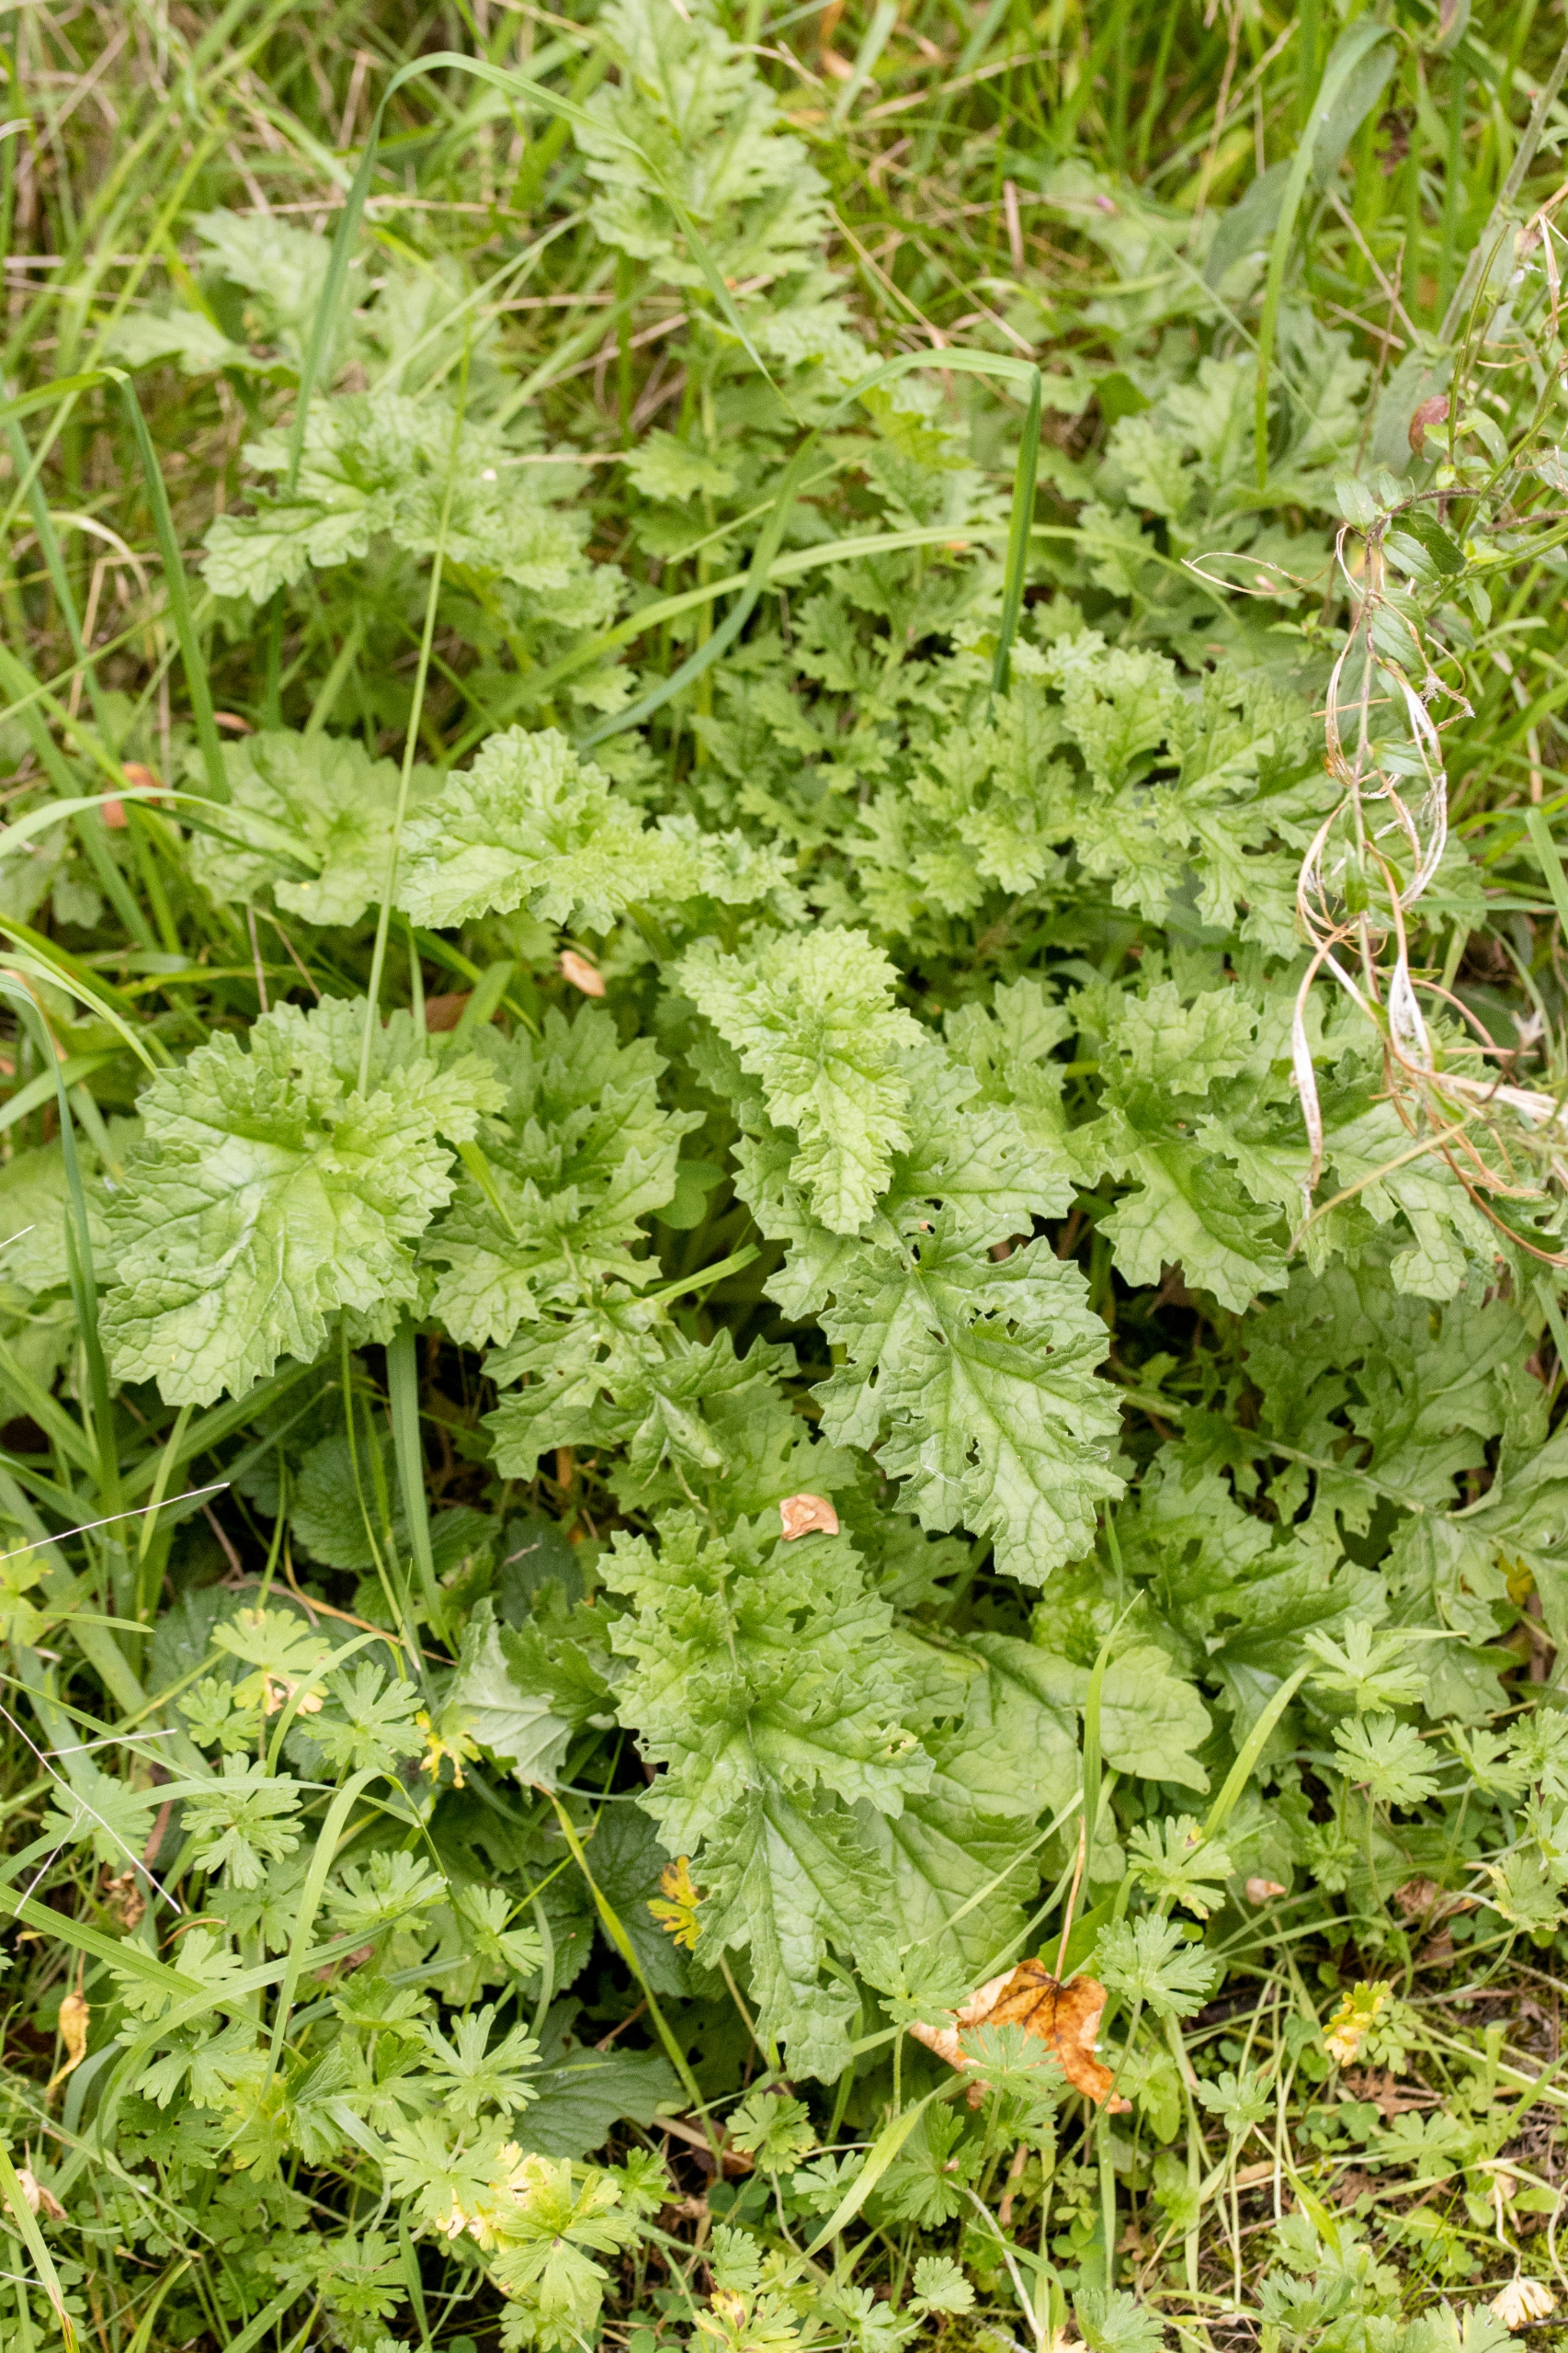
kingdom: Plantae
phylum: Tracheophyta
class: Magnoliopsida
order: Asterales
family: Asteraceae
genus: Jacobaea
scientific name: Jacobaea vulgaris
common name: Eng-brandbæger
